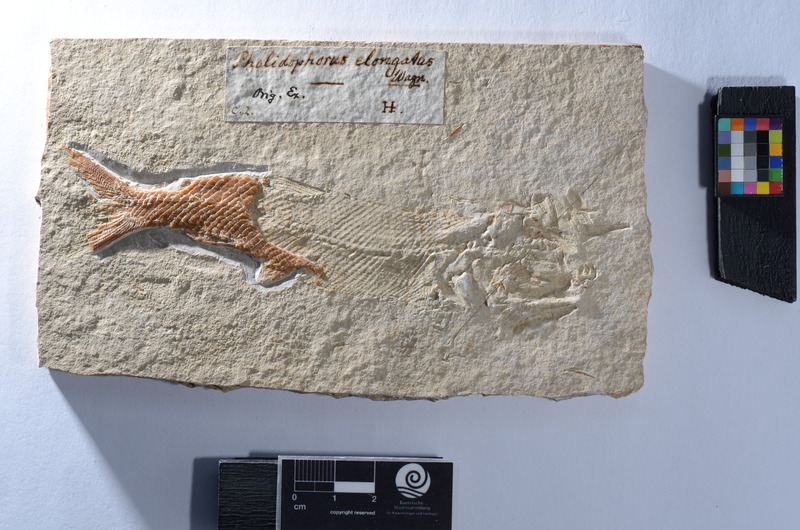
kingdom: Animalia
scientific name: Animalia
